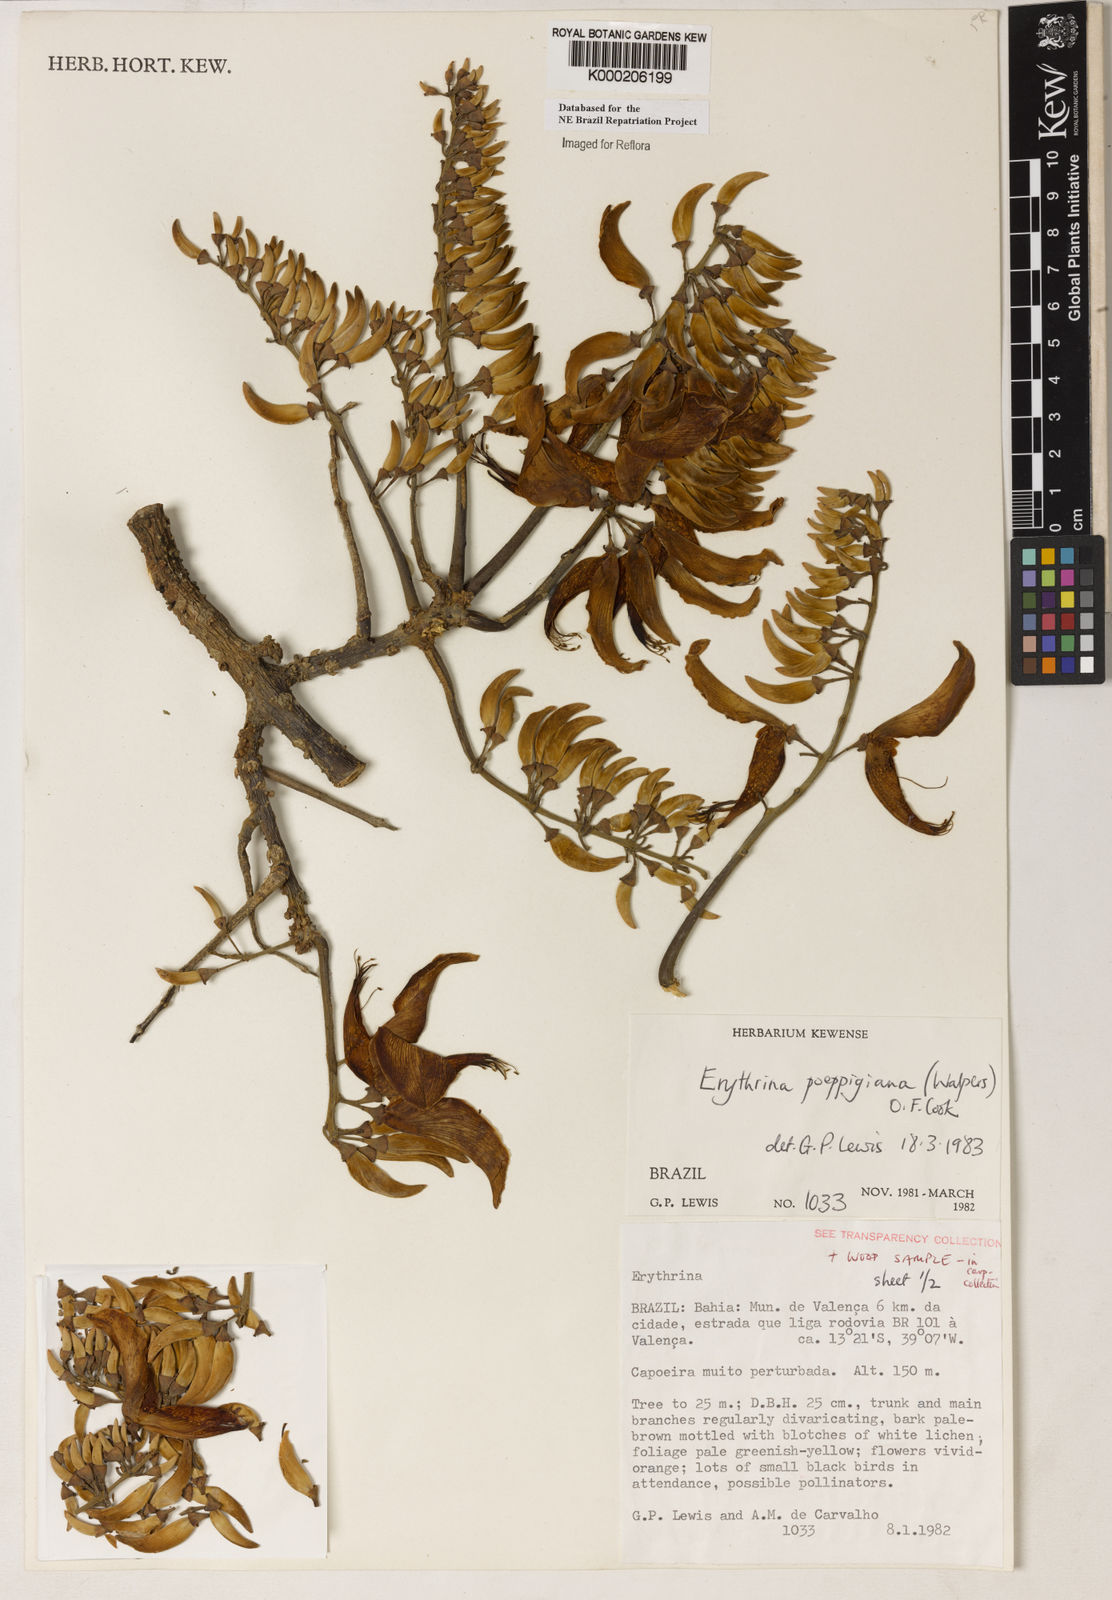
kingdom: Plantae
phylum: Tracheophyta
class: Magnoliopsida
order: Fabales
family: Fabaceae
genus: Erythrina
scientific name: Erythrina poeppigiana
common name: Coral tree
